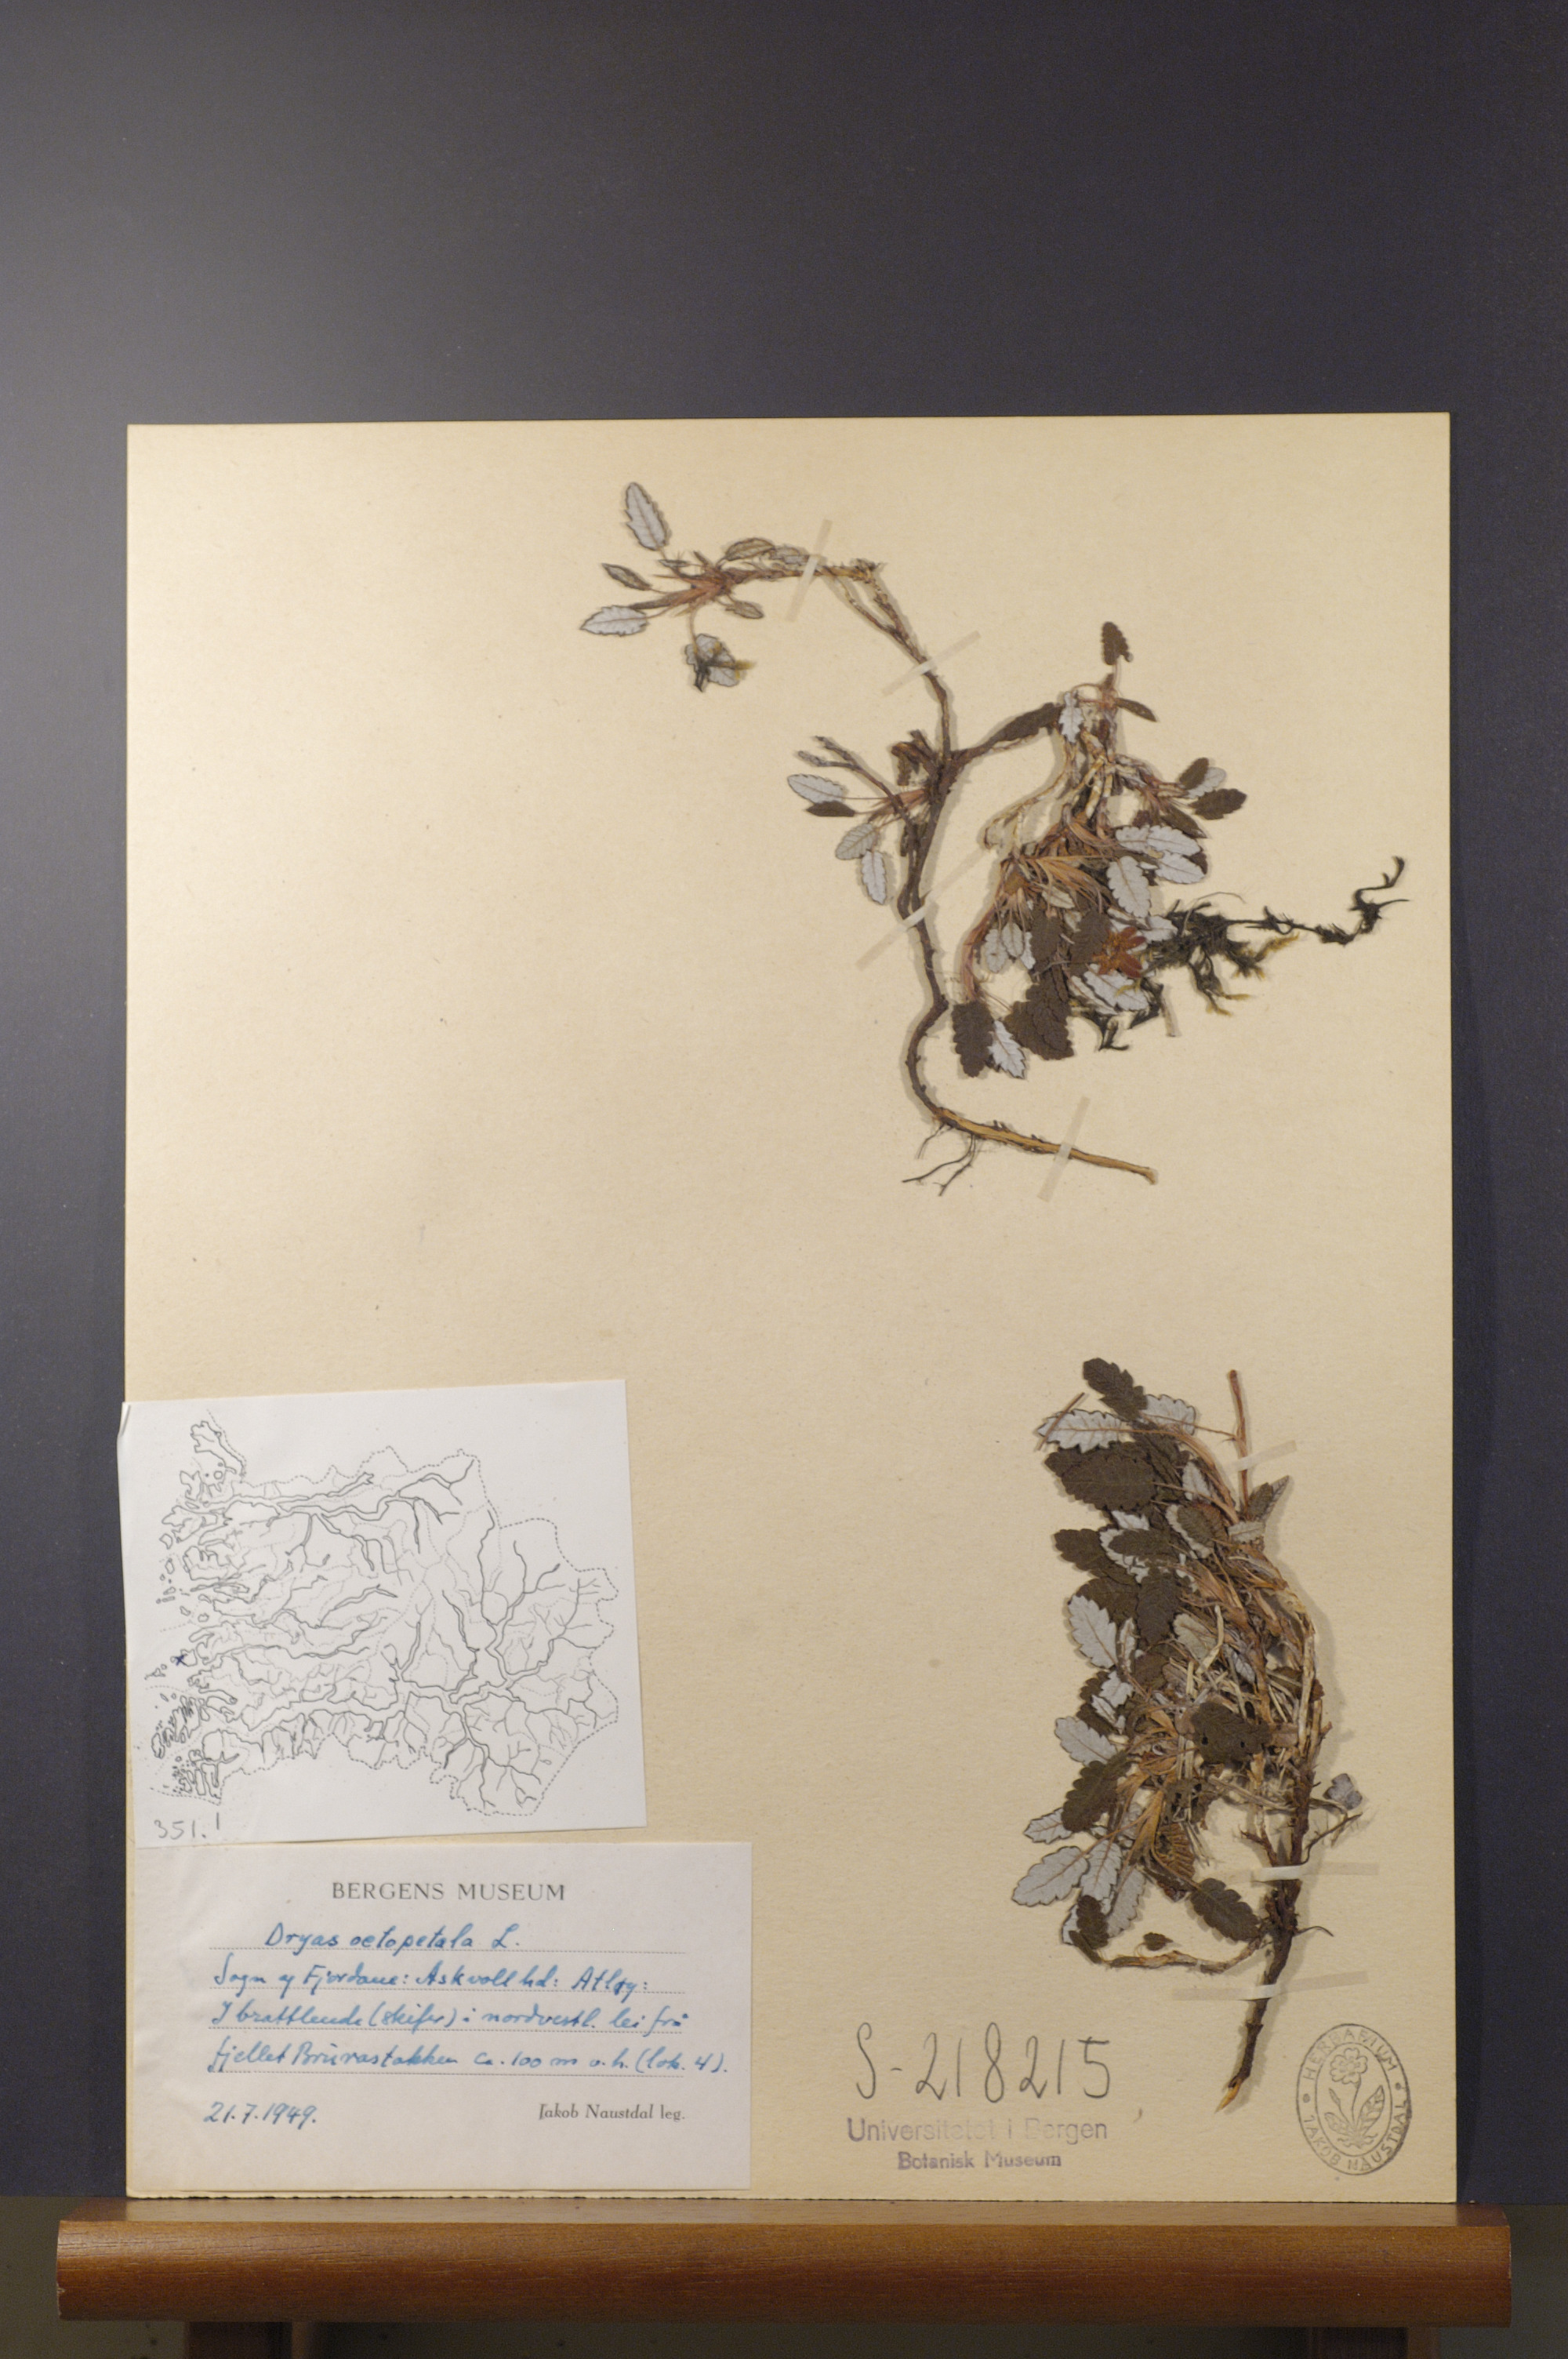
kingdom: Plantae
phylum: Tracheophyta
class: Magnoliopsida
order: Rosales
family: Rosaceae
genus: Dryas
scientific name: Dryas octopetala
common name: Eight-petal mountain-avens
